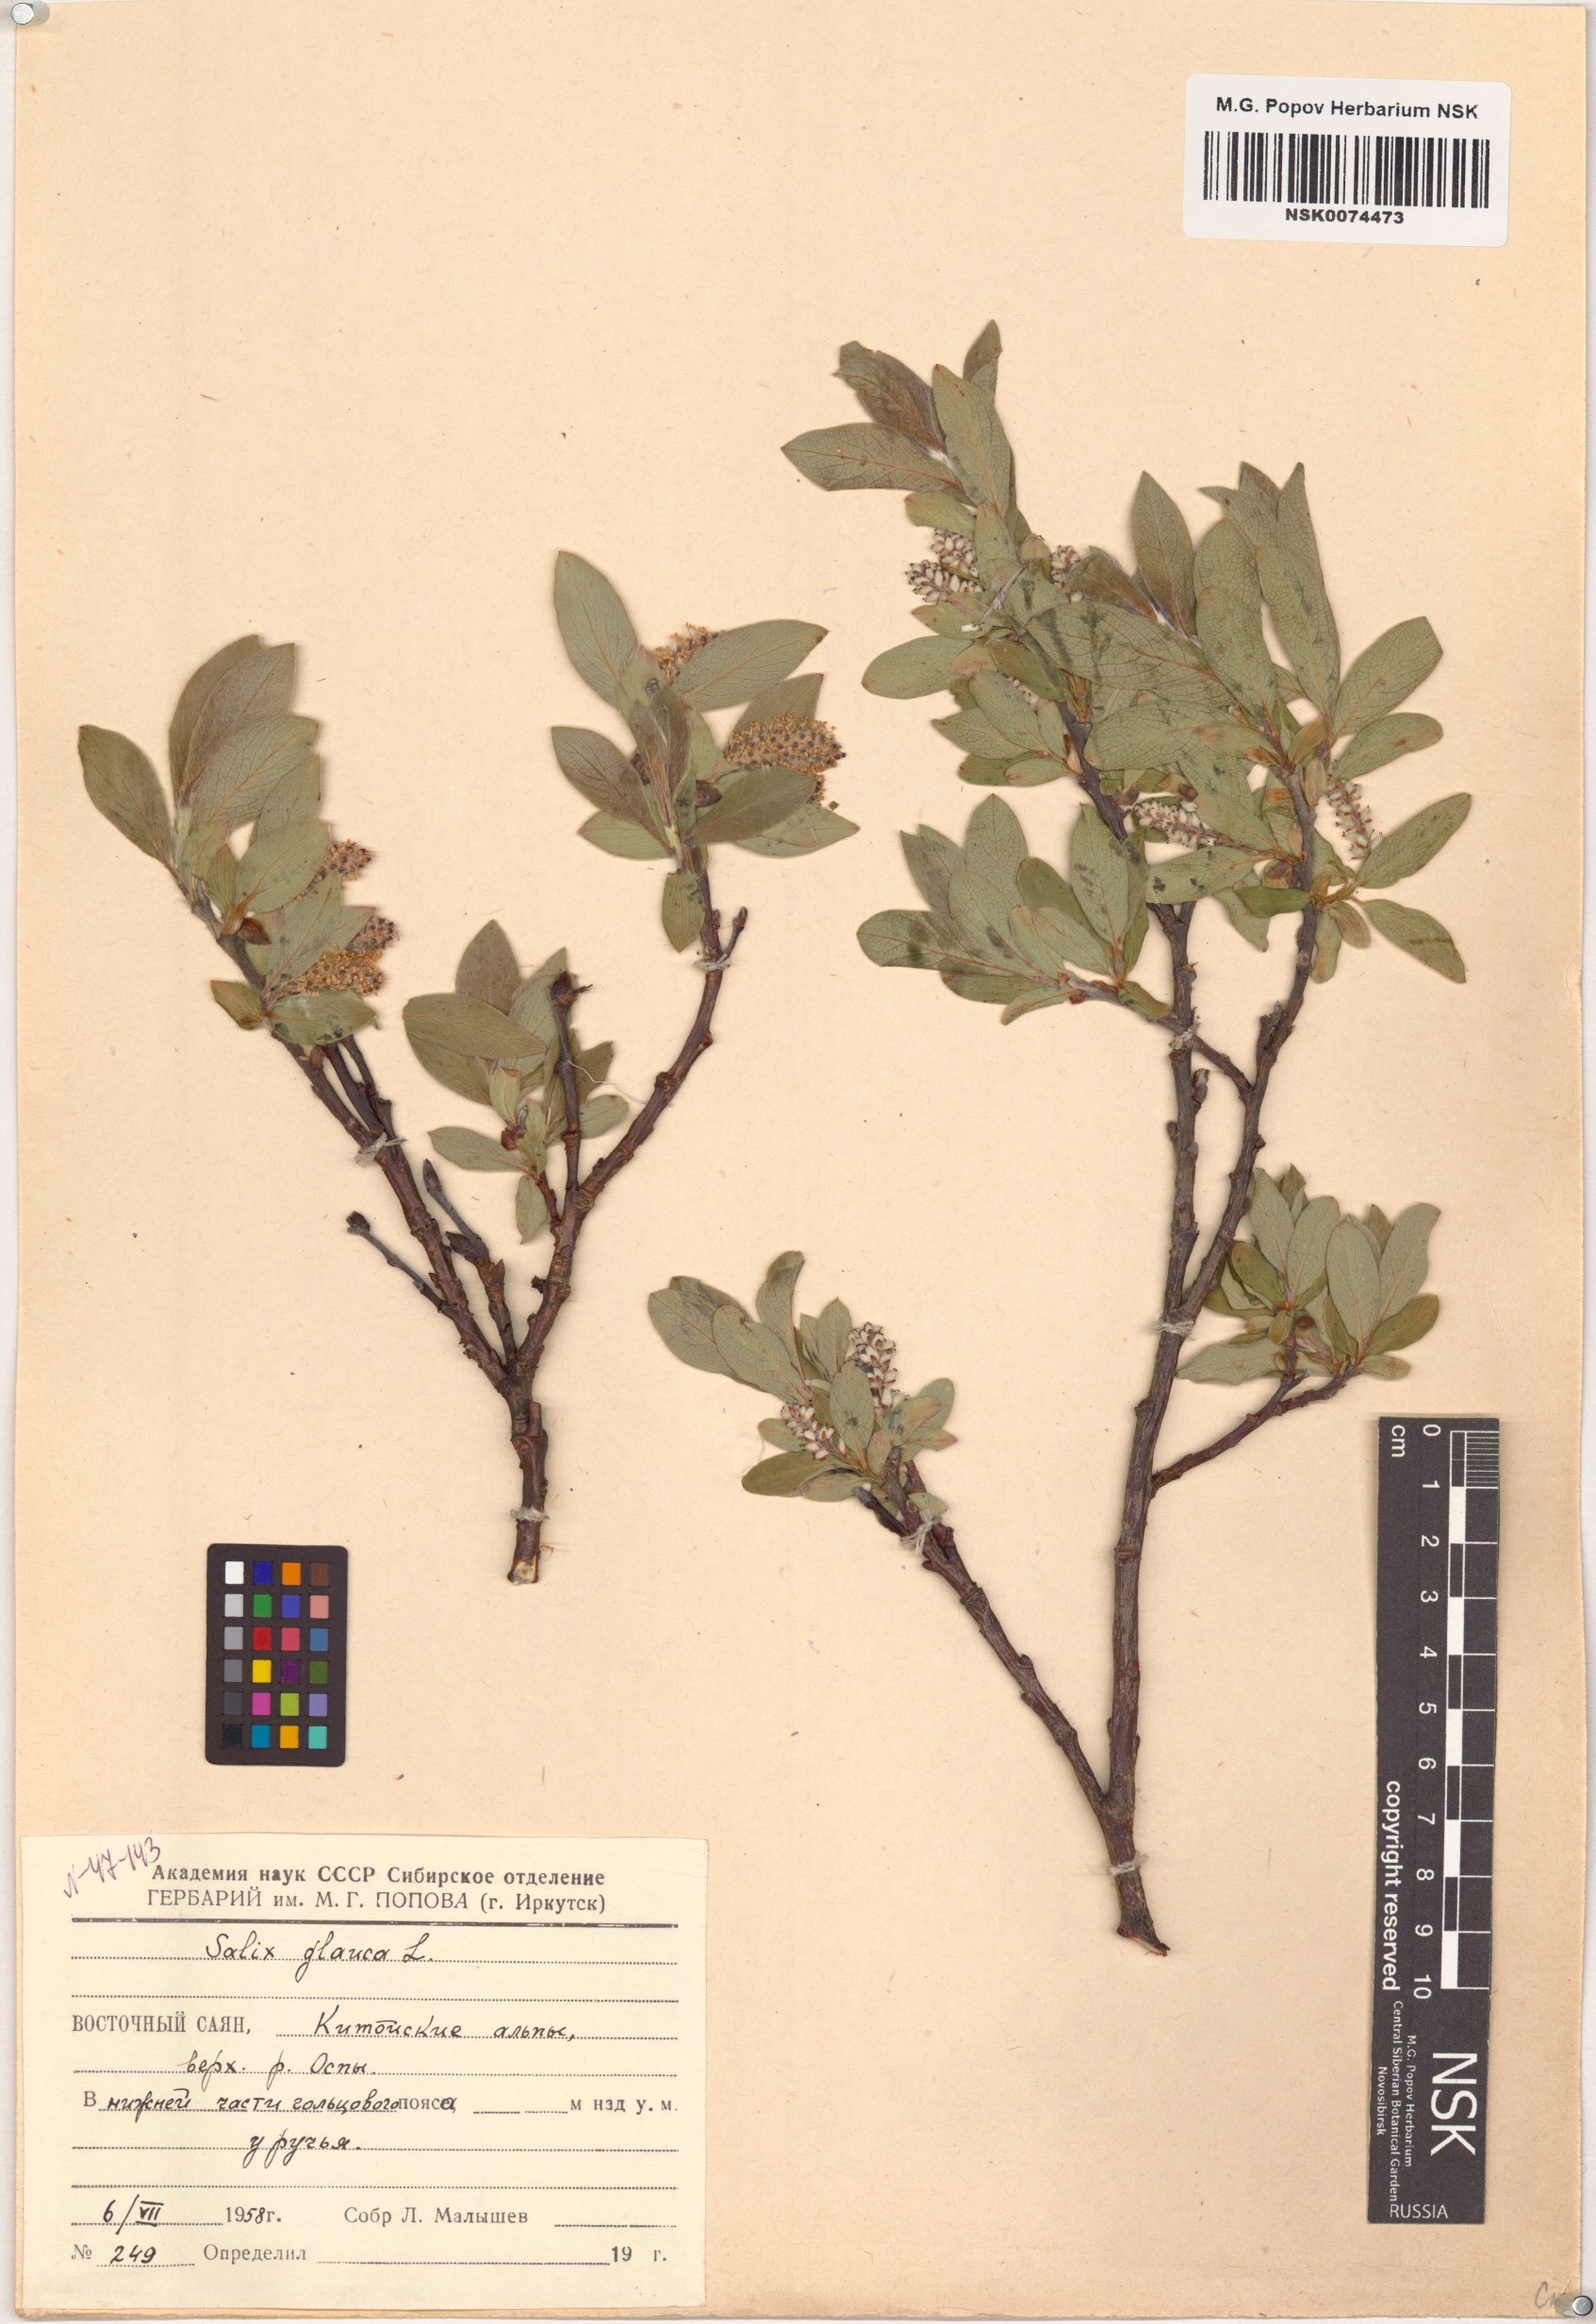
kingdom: Plantae
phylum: Tracheophyta
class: Magnoliopsida
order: Malpighiales
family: Salicaceae
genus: Salix
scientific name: Salix glauca
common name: Glaucous willow
